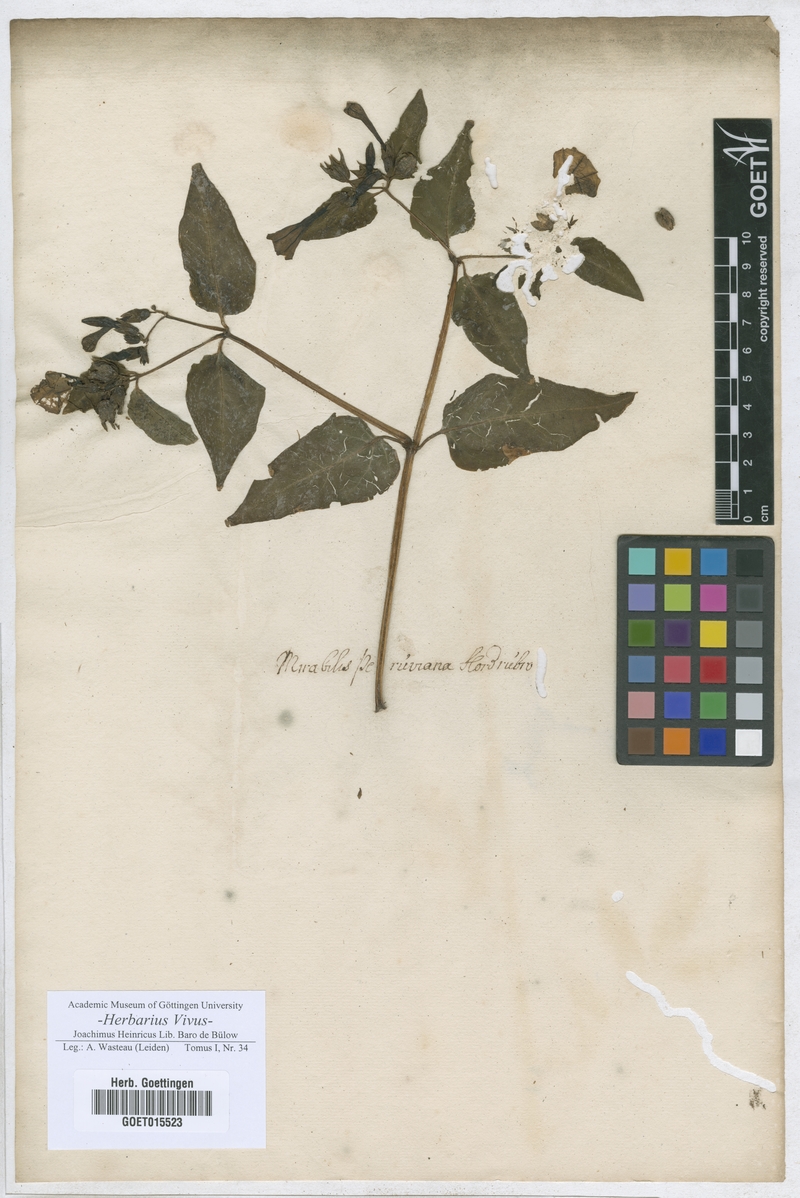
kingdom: Plantae
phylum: Tracheophyta
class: Magnoliopsida
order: Caryophyllales
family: Nyctaginaceae
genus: Mirabilis
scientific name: Mirabilis
